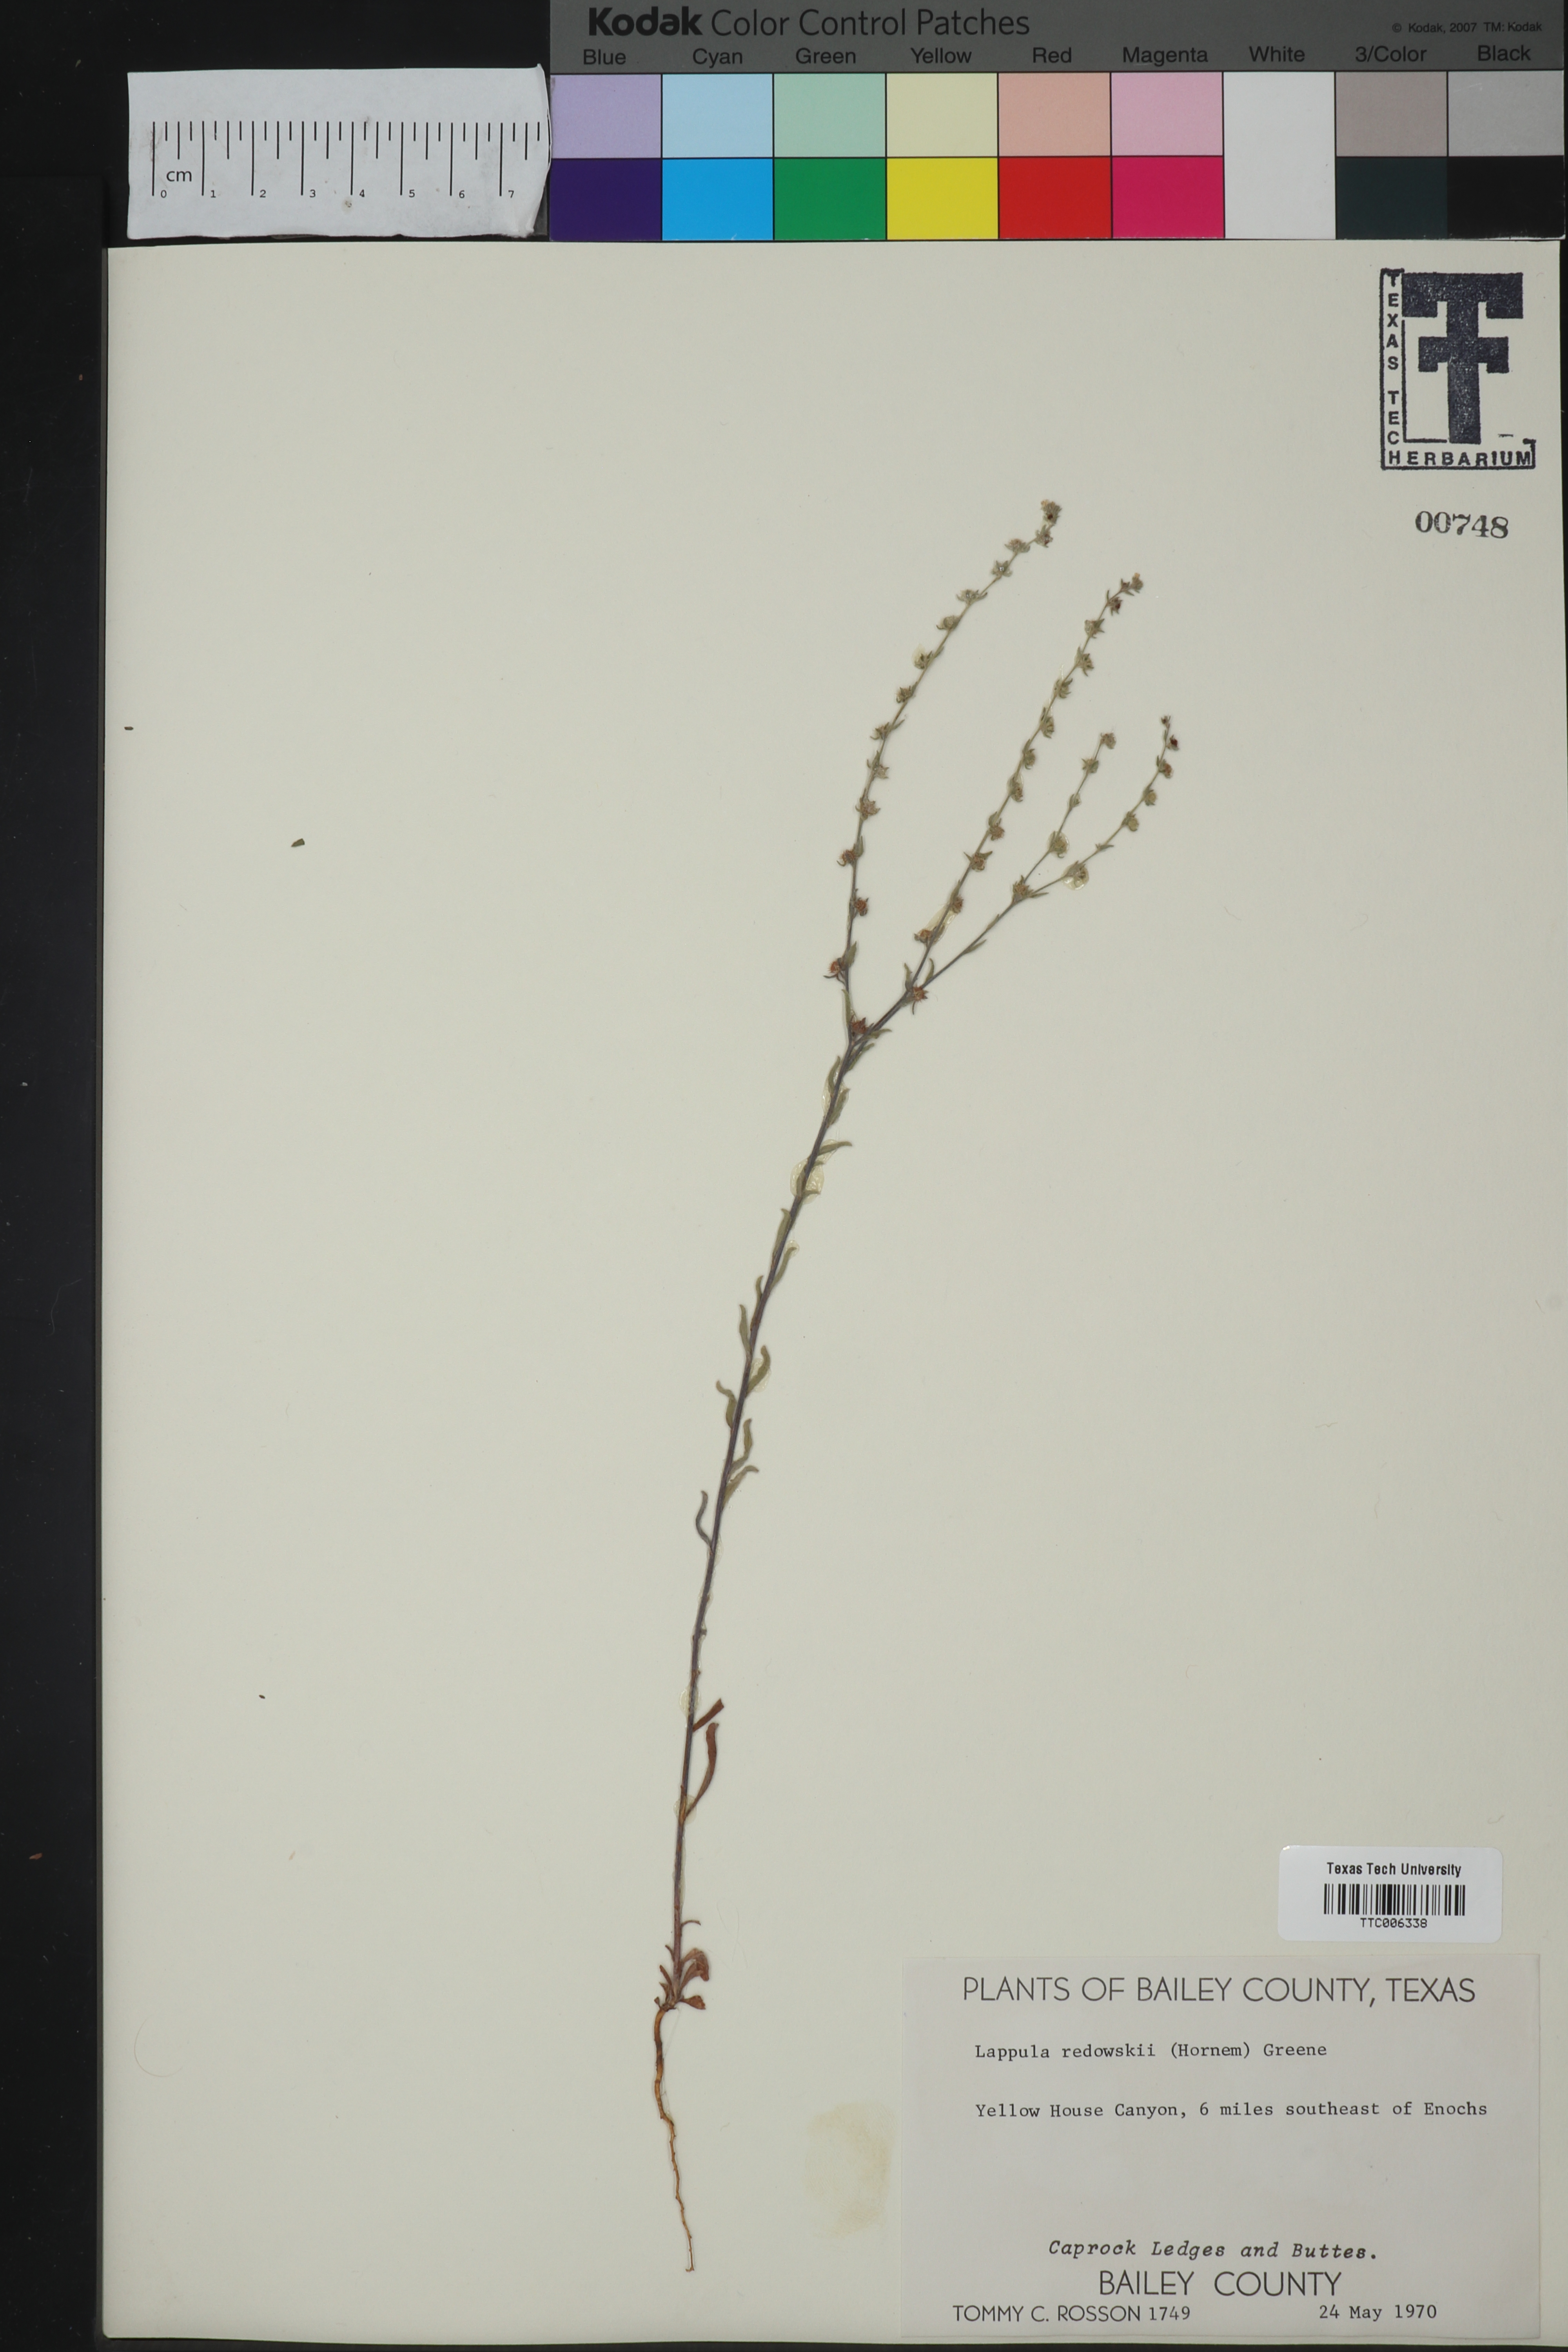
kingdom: Plantae
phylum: Tracheophyta
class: Magnoliopsida
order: Boraginales
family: Boraginaceae
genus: Lappula
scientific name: Lappula redowskii
